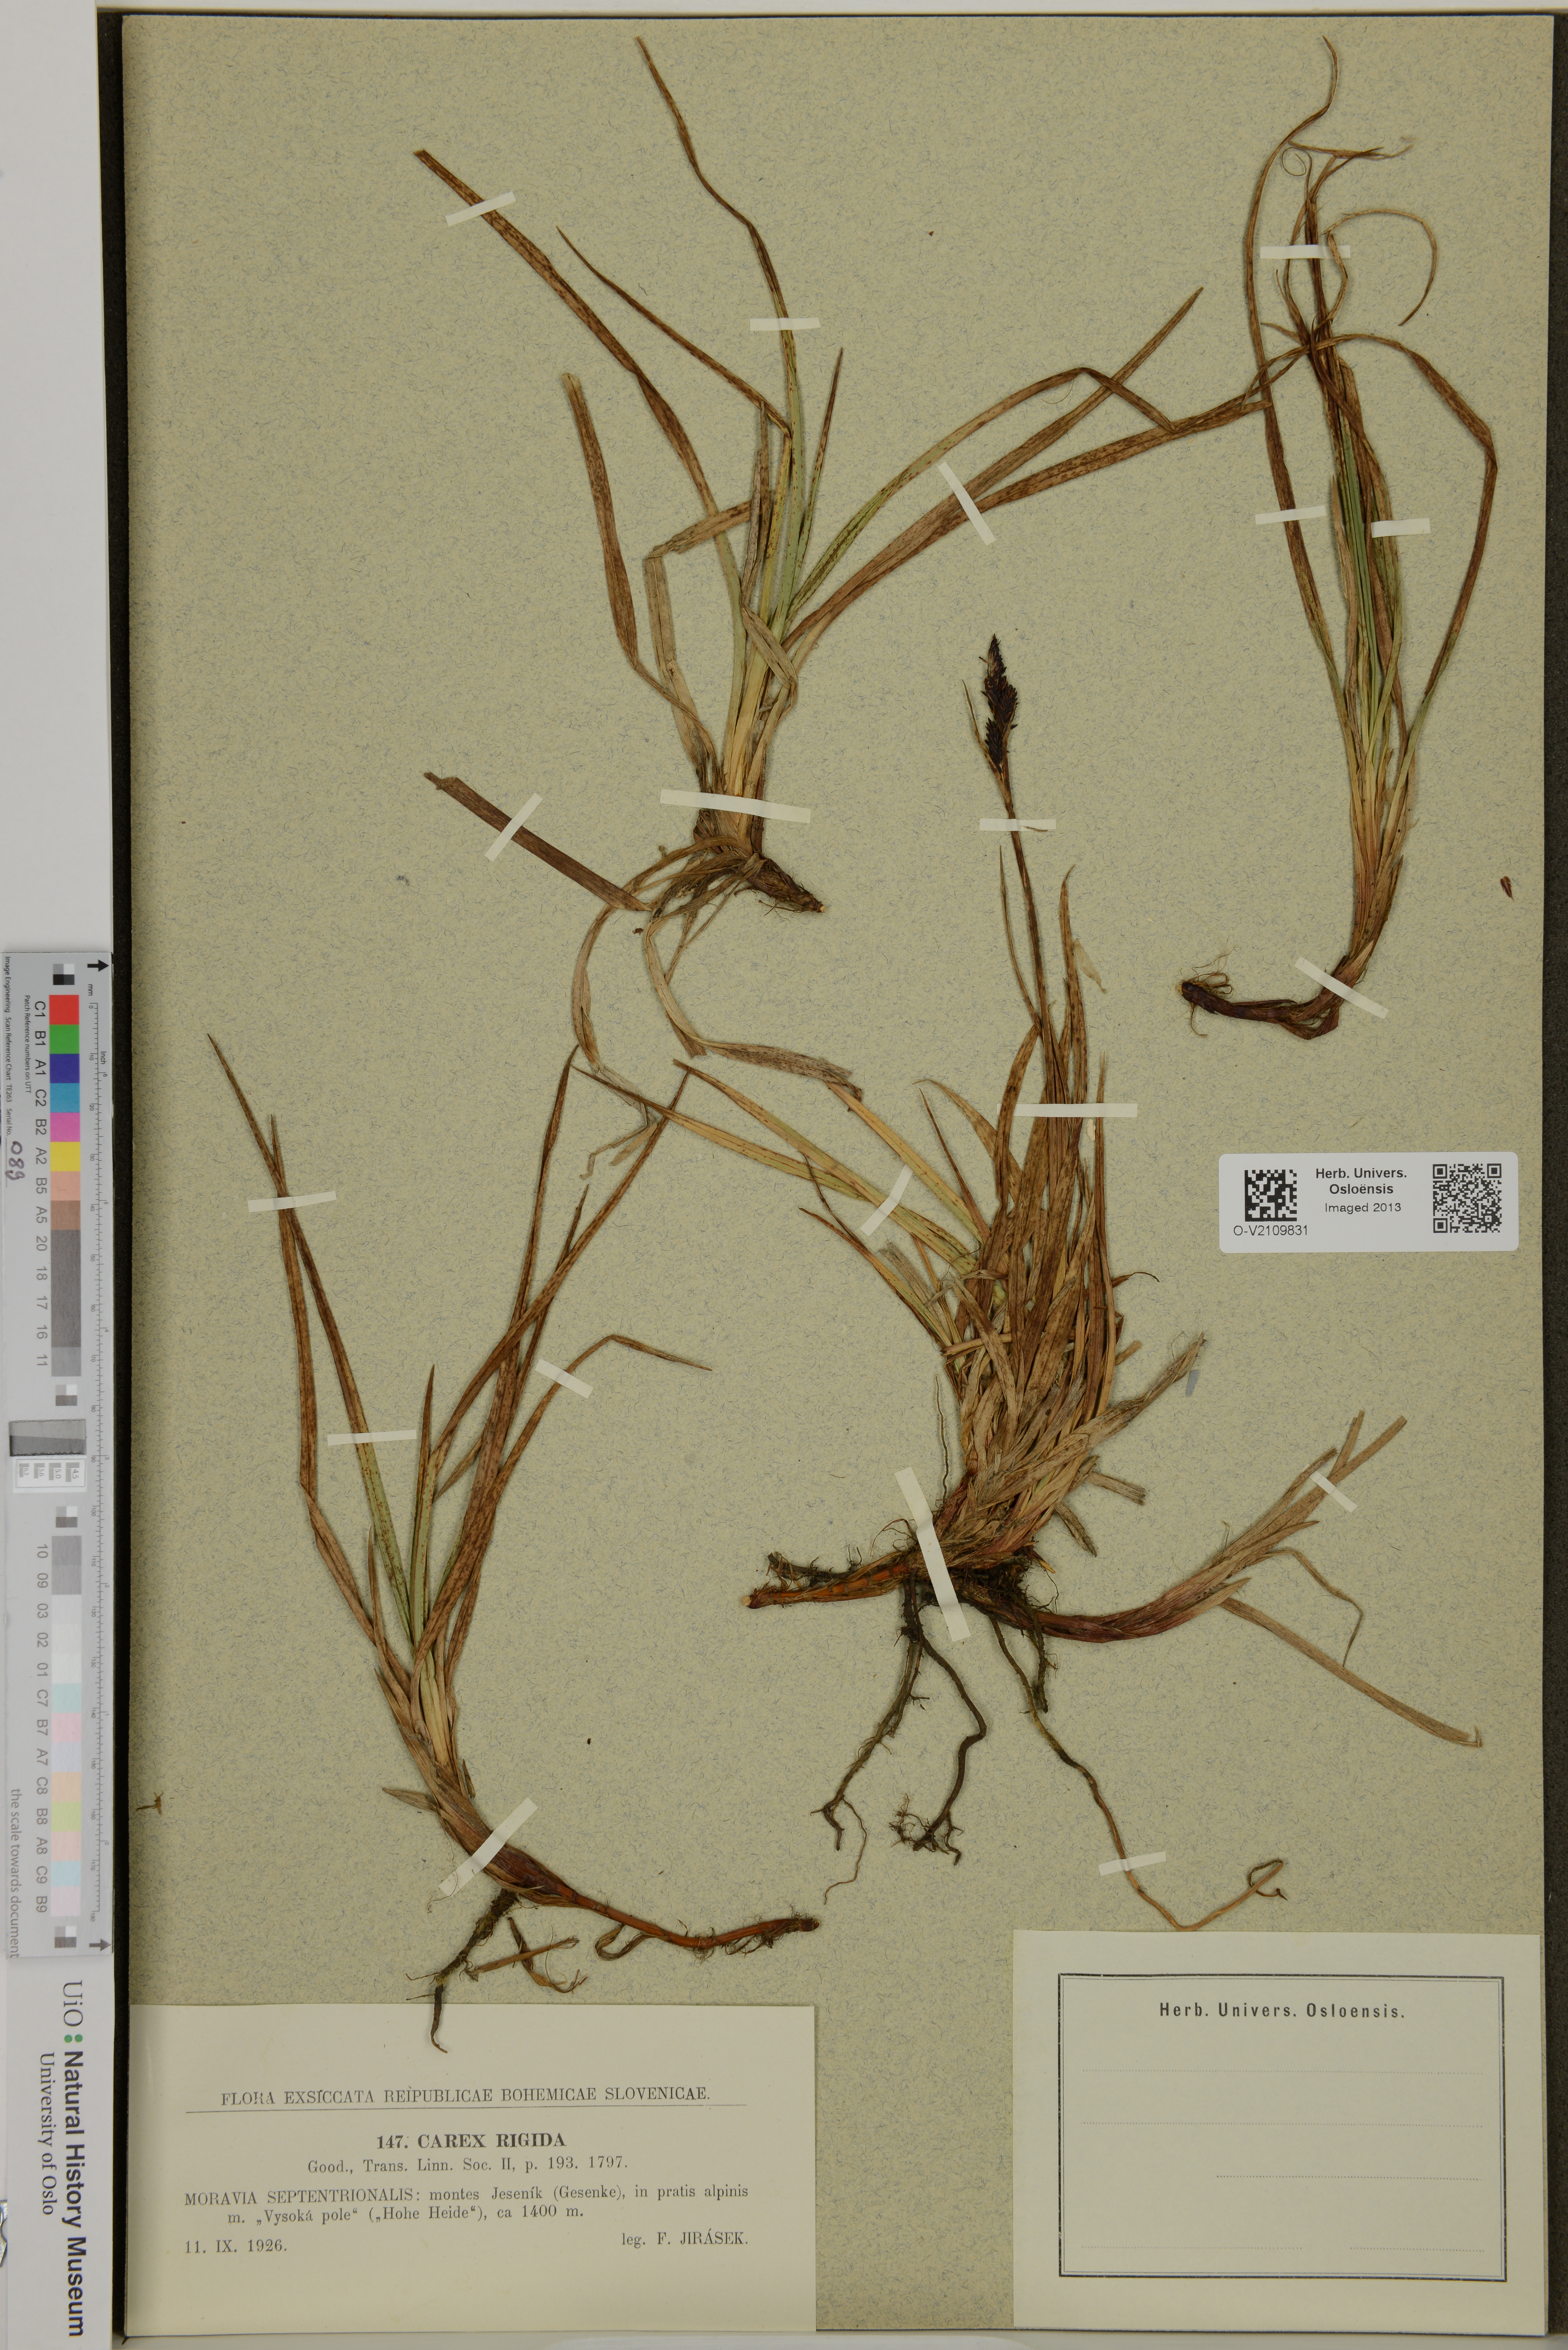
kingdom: Plantae
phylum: Tracheophyta
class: Liliopsida
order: Poales
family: Cyperaceae
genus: Carex
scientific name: Carex dacica
